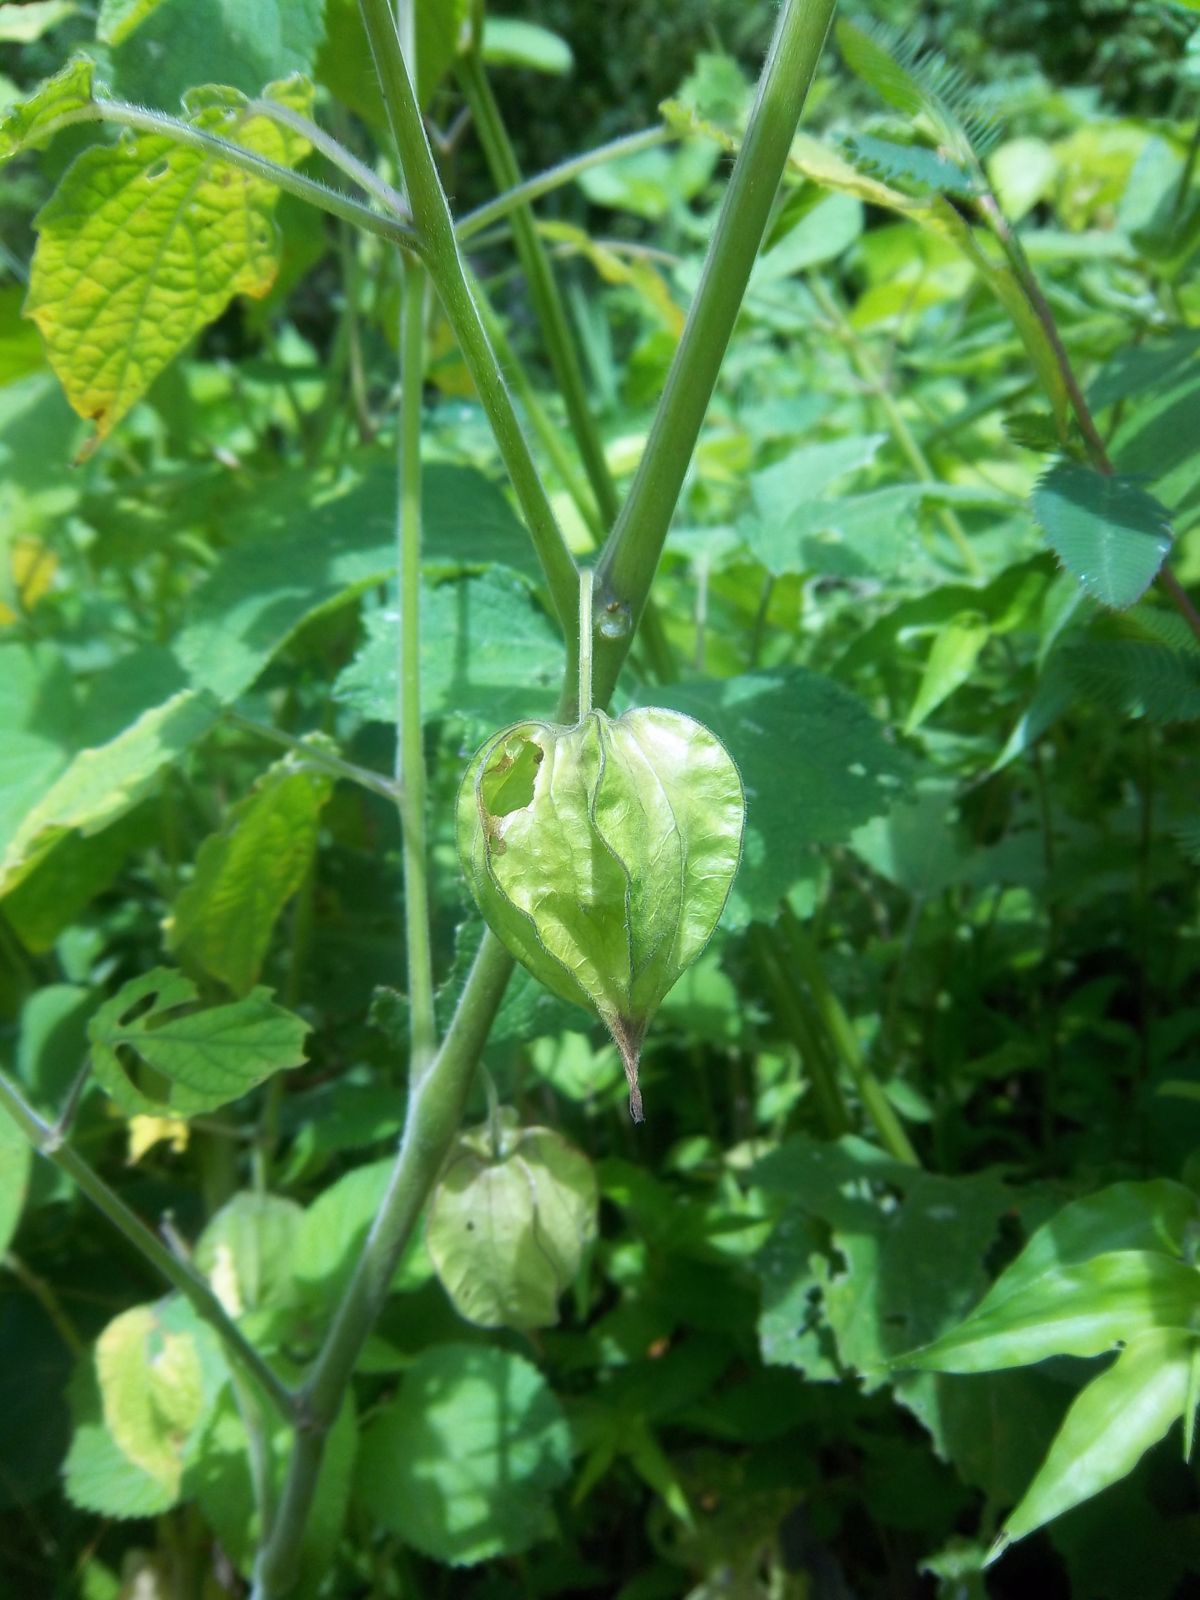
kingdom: Plantae
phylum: Tracheophyta
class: Magnoliopsida
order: Solanales
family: Solanaceae
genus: Physalis
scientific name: Physalis ignota
